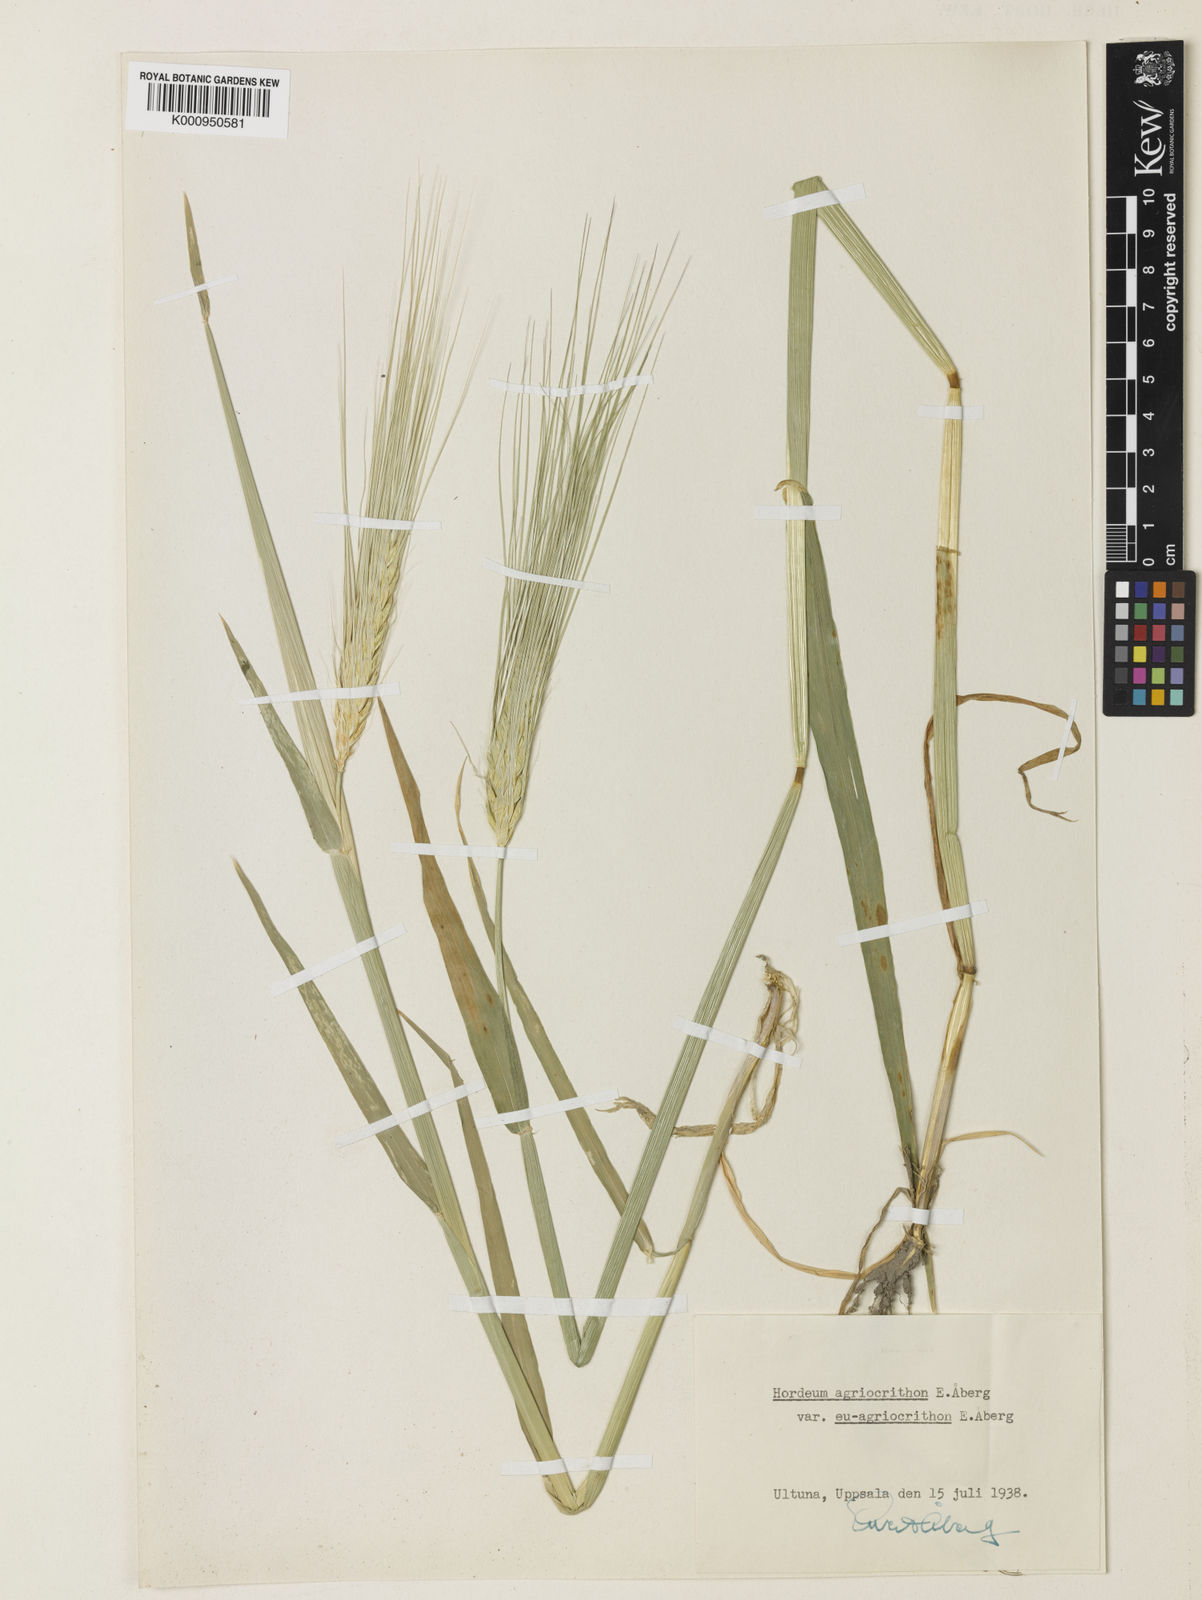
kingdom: Plantae
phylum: Tracheophyta
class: Liliopsida
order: Poales
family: Poaceae
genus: Hordeum
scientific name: Hordeum vulgare
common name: Common barley
